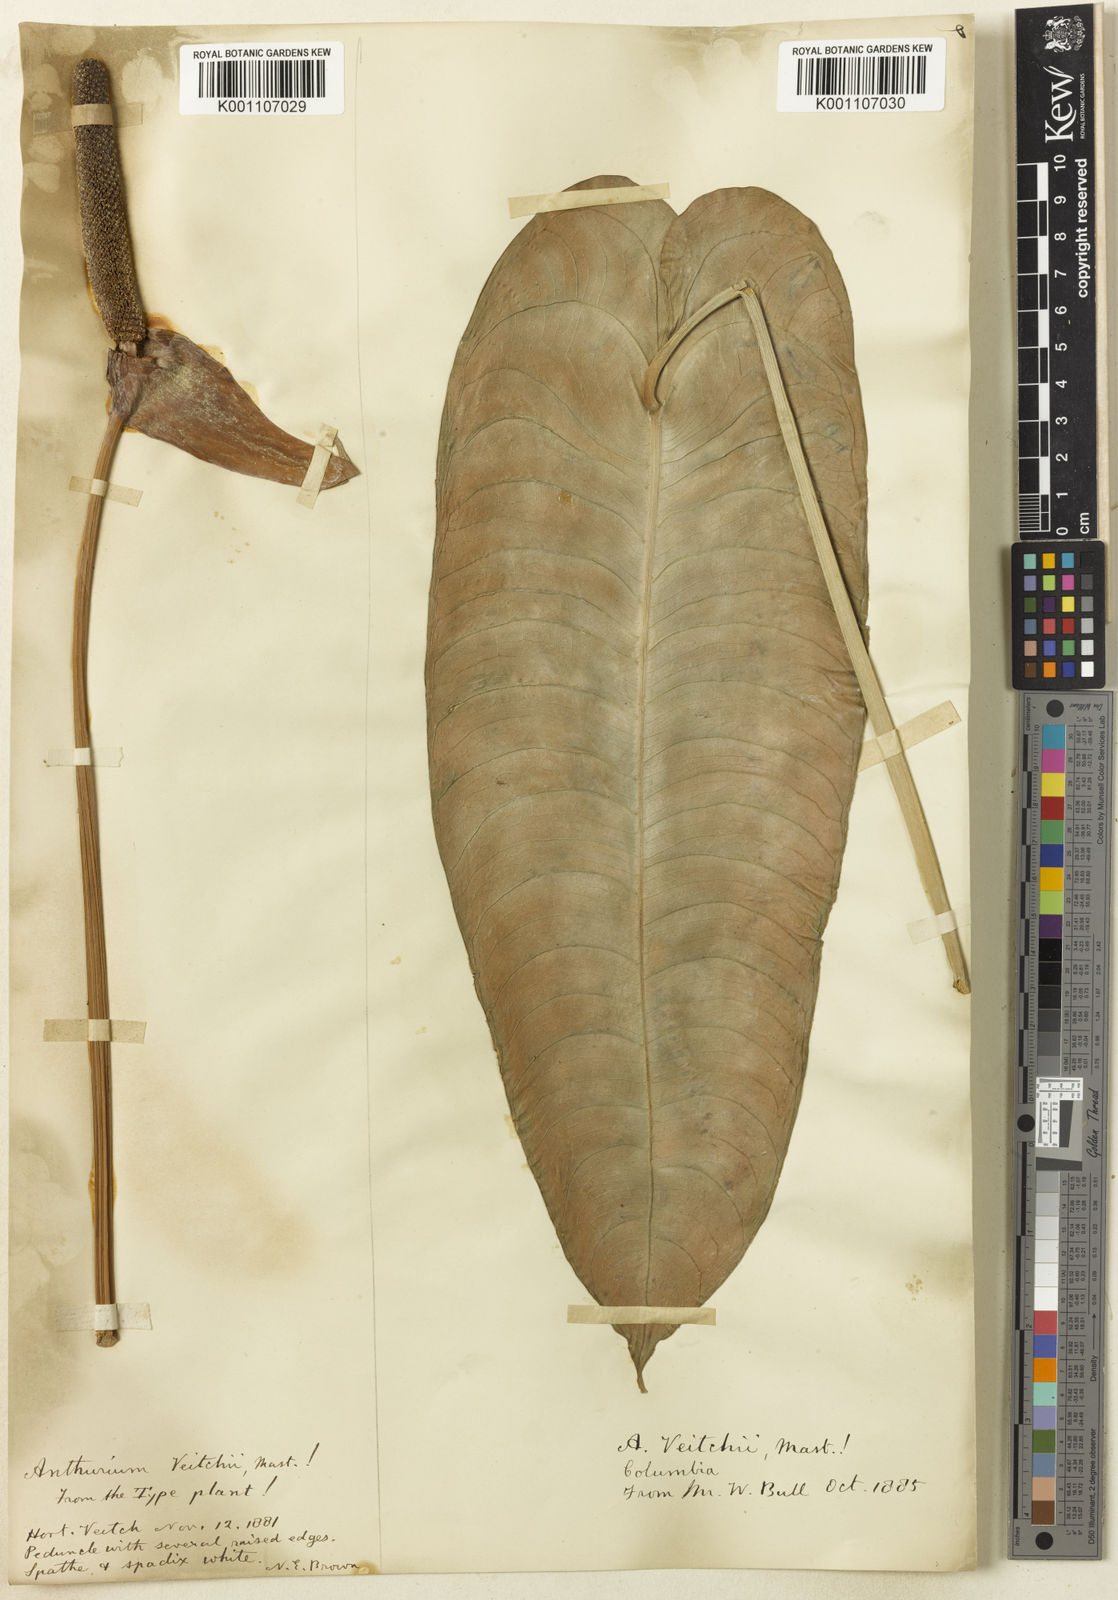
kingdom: Plantae
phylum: Tracheophyta
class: Liliopsida
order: Alismatales
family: Araceae
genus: Anthurium
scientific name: Anthurium veitchii
